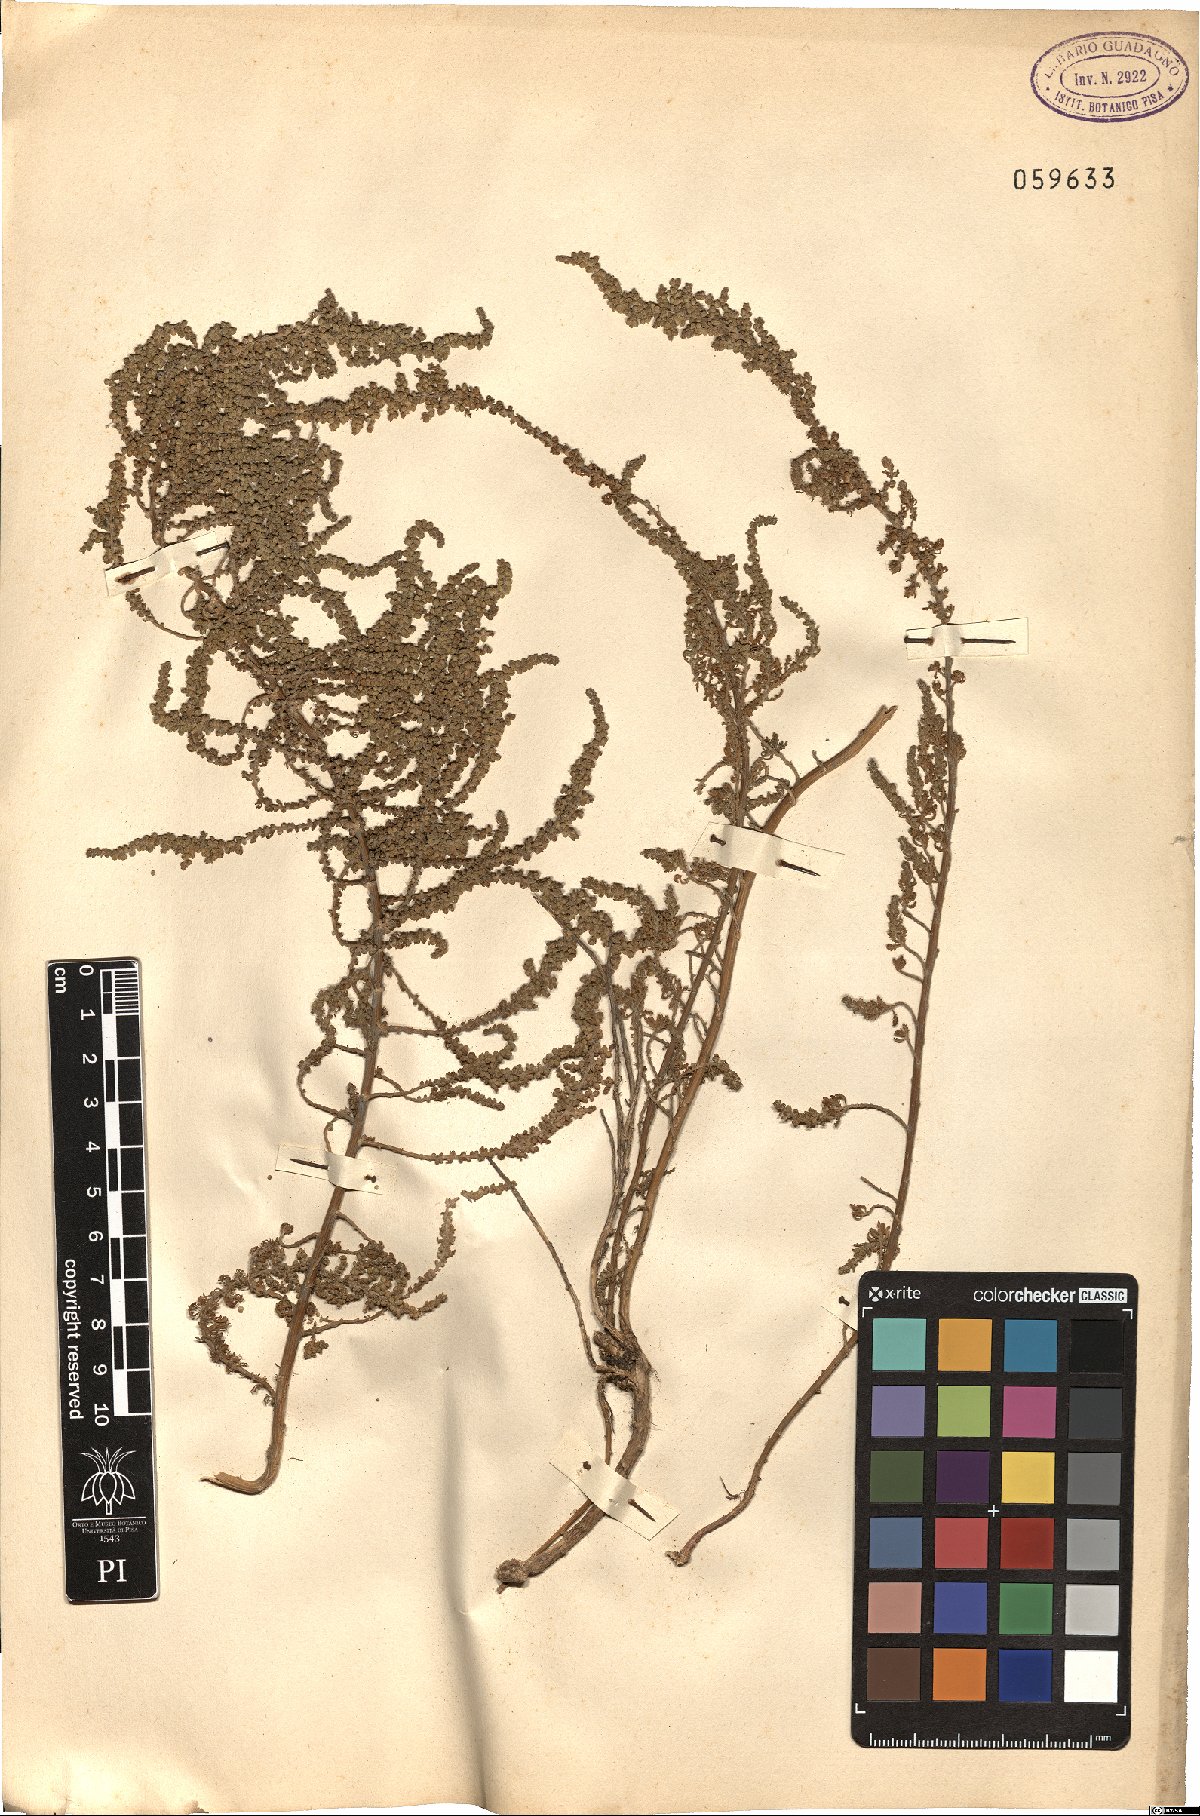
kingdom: Plantae
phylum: Tracheophyta
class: Magnoliopsida
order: Asterales
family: Asteraceae
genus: Artemisia
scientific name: Artemisia annua
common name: Sweet sagewort
